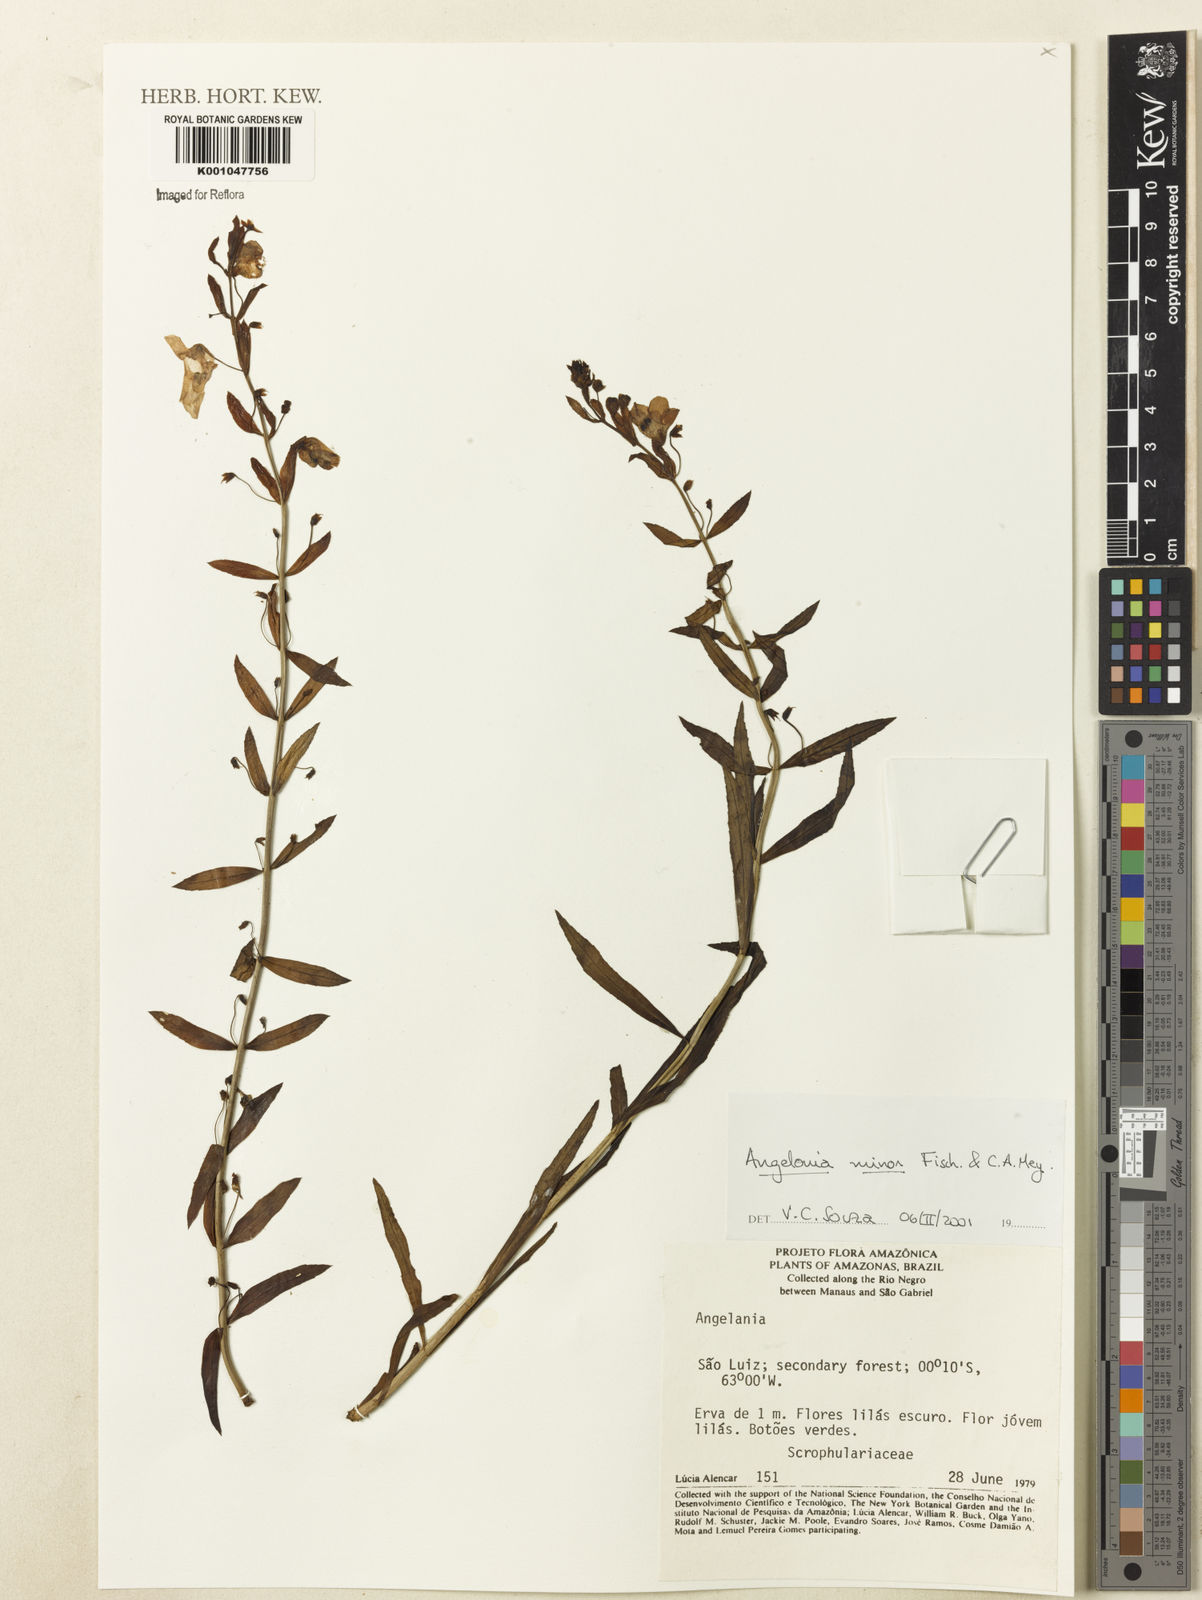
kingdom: Plantae
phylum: Tracheophyta
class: Magnoliopsida
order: Lamiales
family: Plantaginaceae
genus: Angelonia
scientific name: Angelonia minor
